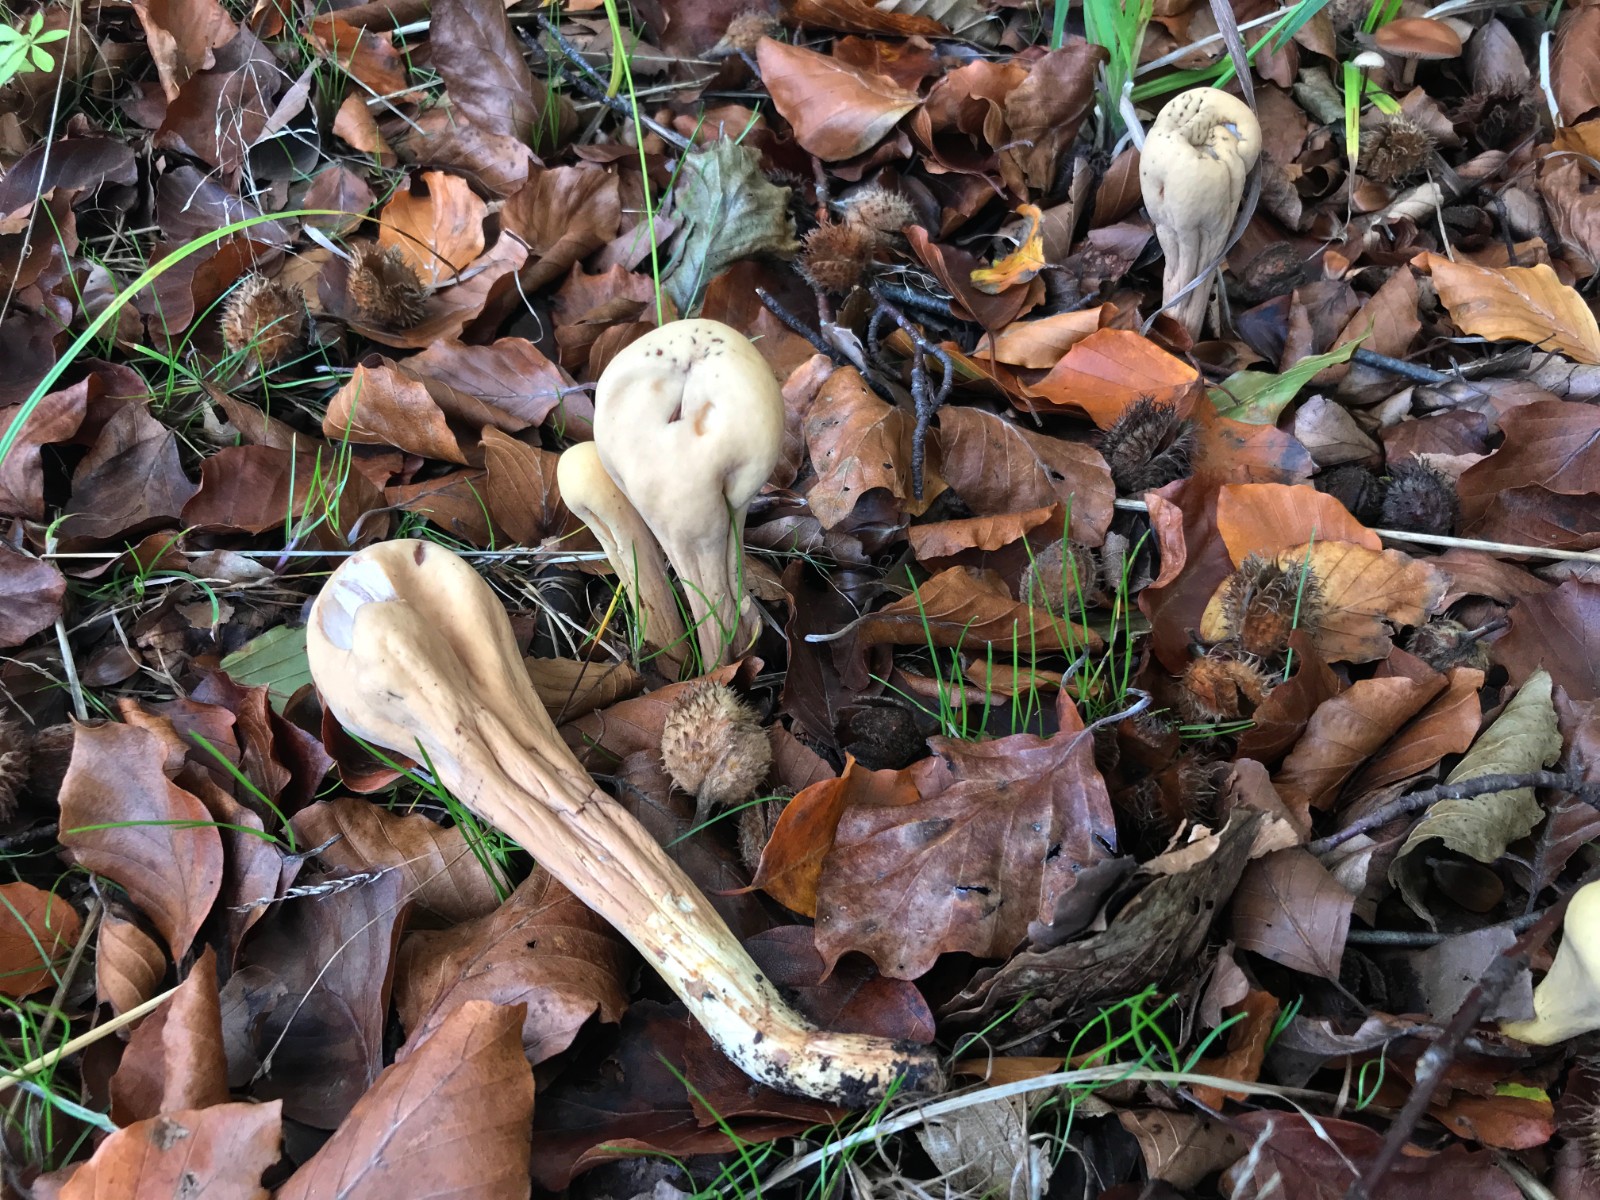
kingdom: Fungi
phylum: Basidiomycota
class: Agaricomycetes
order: Gomphales
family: Clavariadelphaceae
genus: Clavariadelphus
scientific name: Clavariadelphus pistillaris
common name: herkules-kæmpekølle
